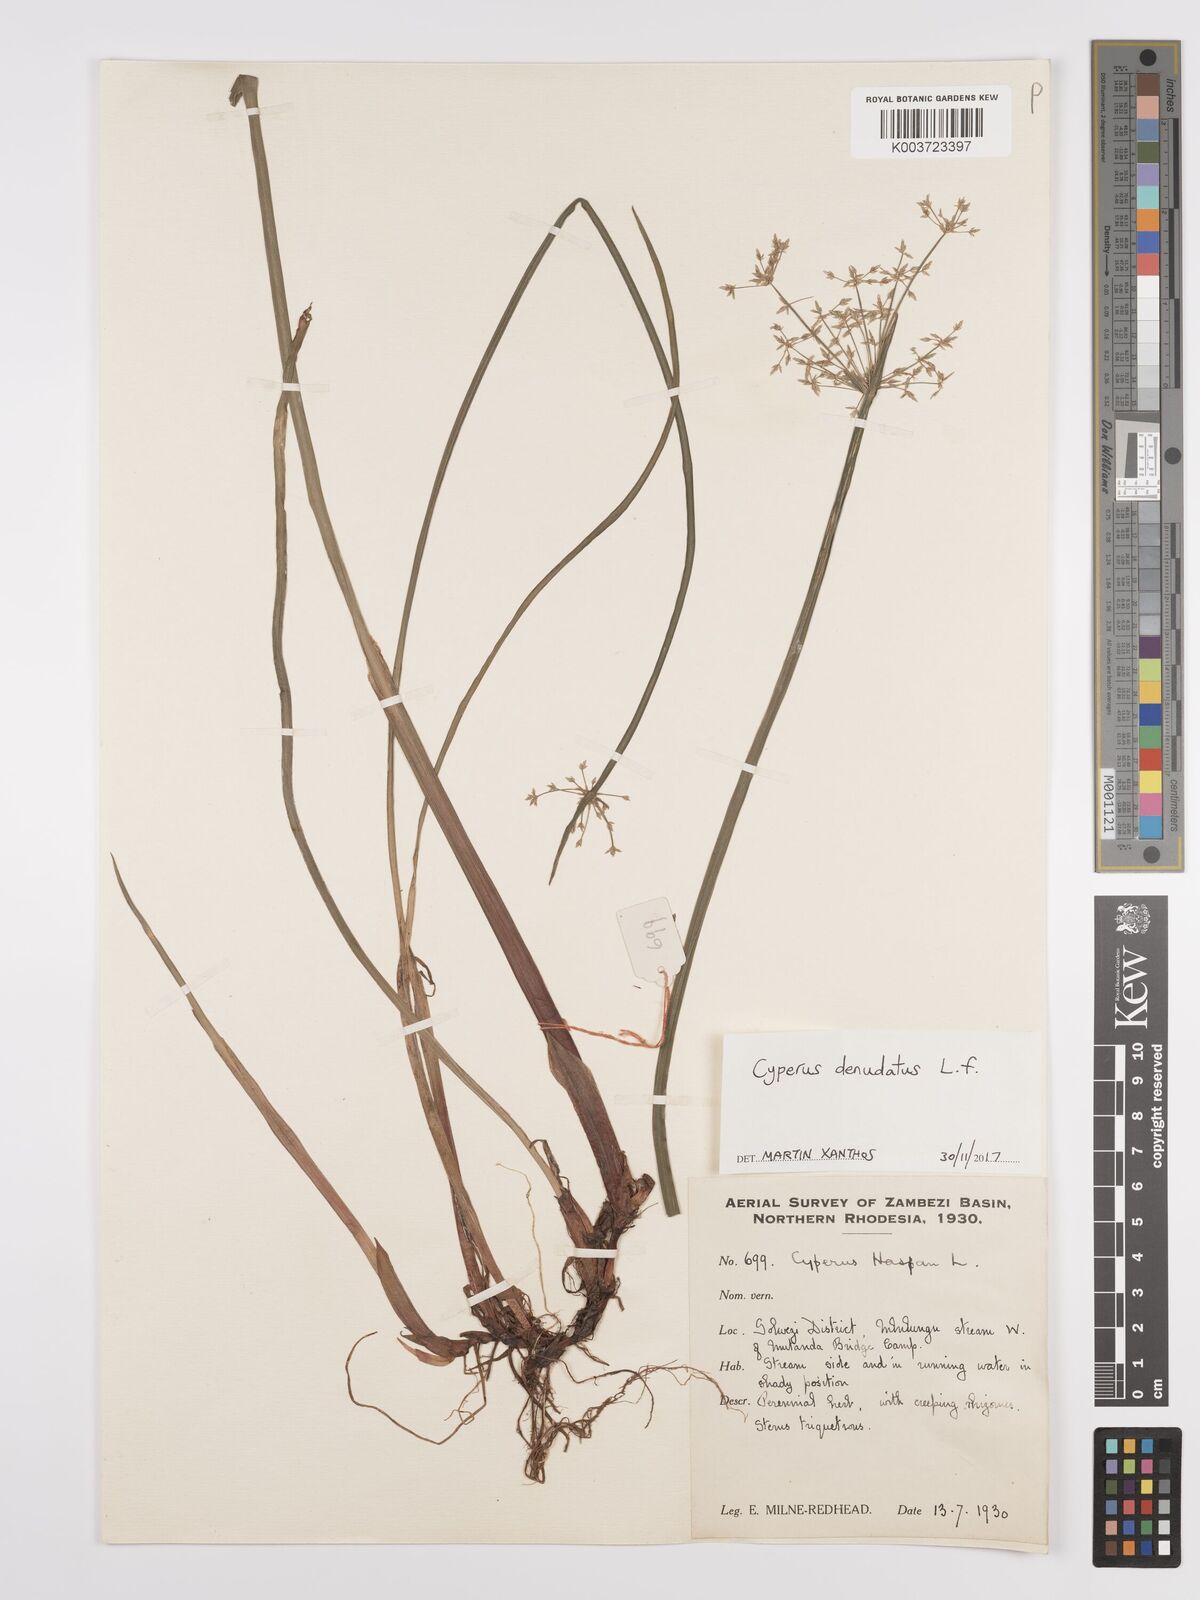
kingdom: Plantae
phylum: Tracheophyta
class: Liliopsida
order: Poales
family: Cyperaceae
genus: Cyperus
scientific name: Cyperus denudatus
